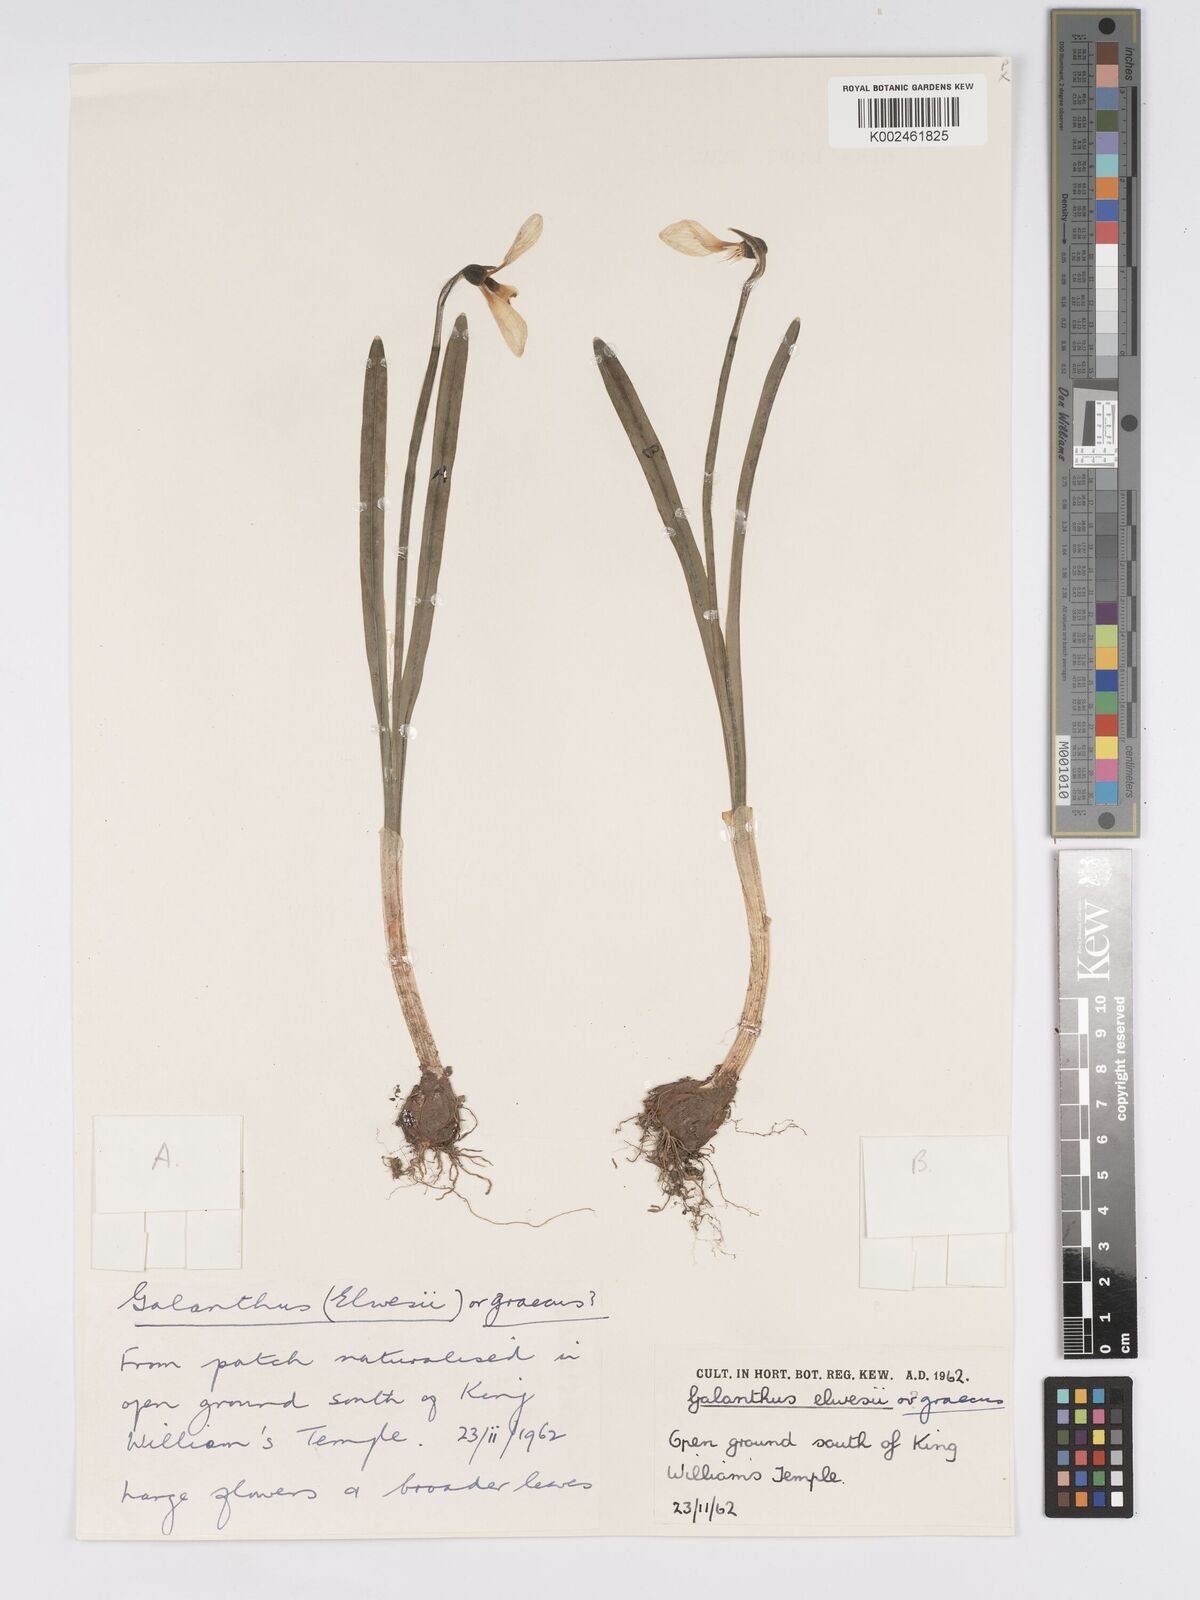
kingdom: Plantae
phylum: Tracheophyta
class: Liliopsida
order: Asparagales
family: Amaryllidaceae
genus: Galanthus
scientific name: Galanthus elwesii
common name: Greater snowdrop
